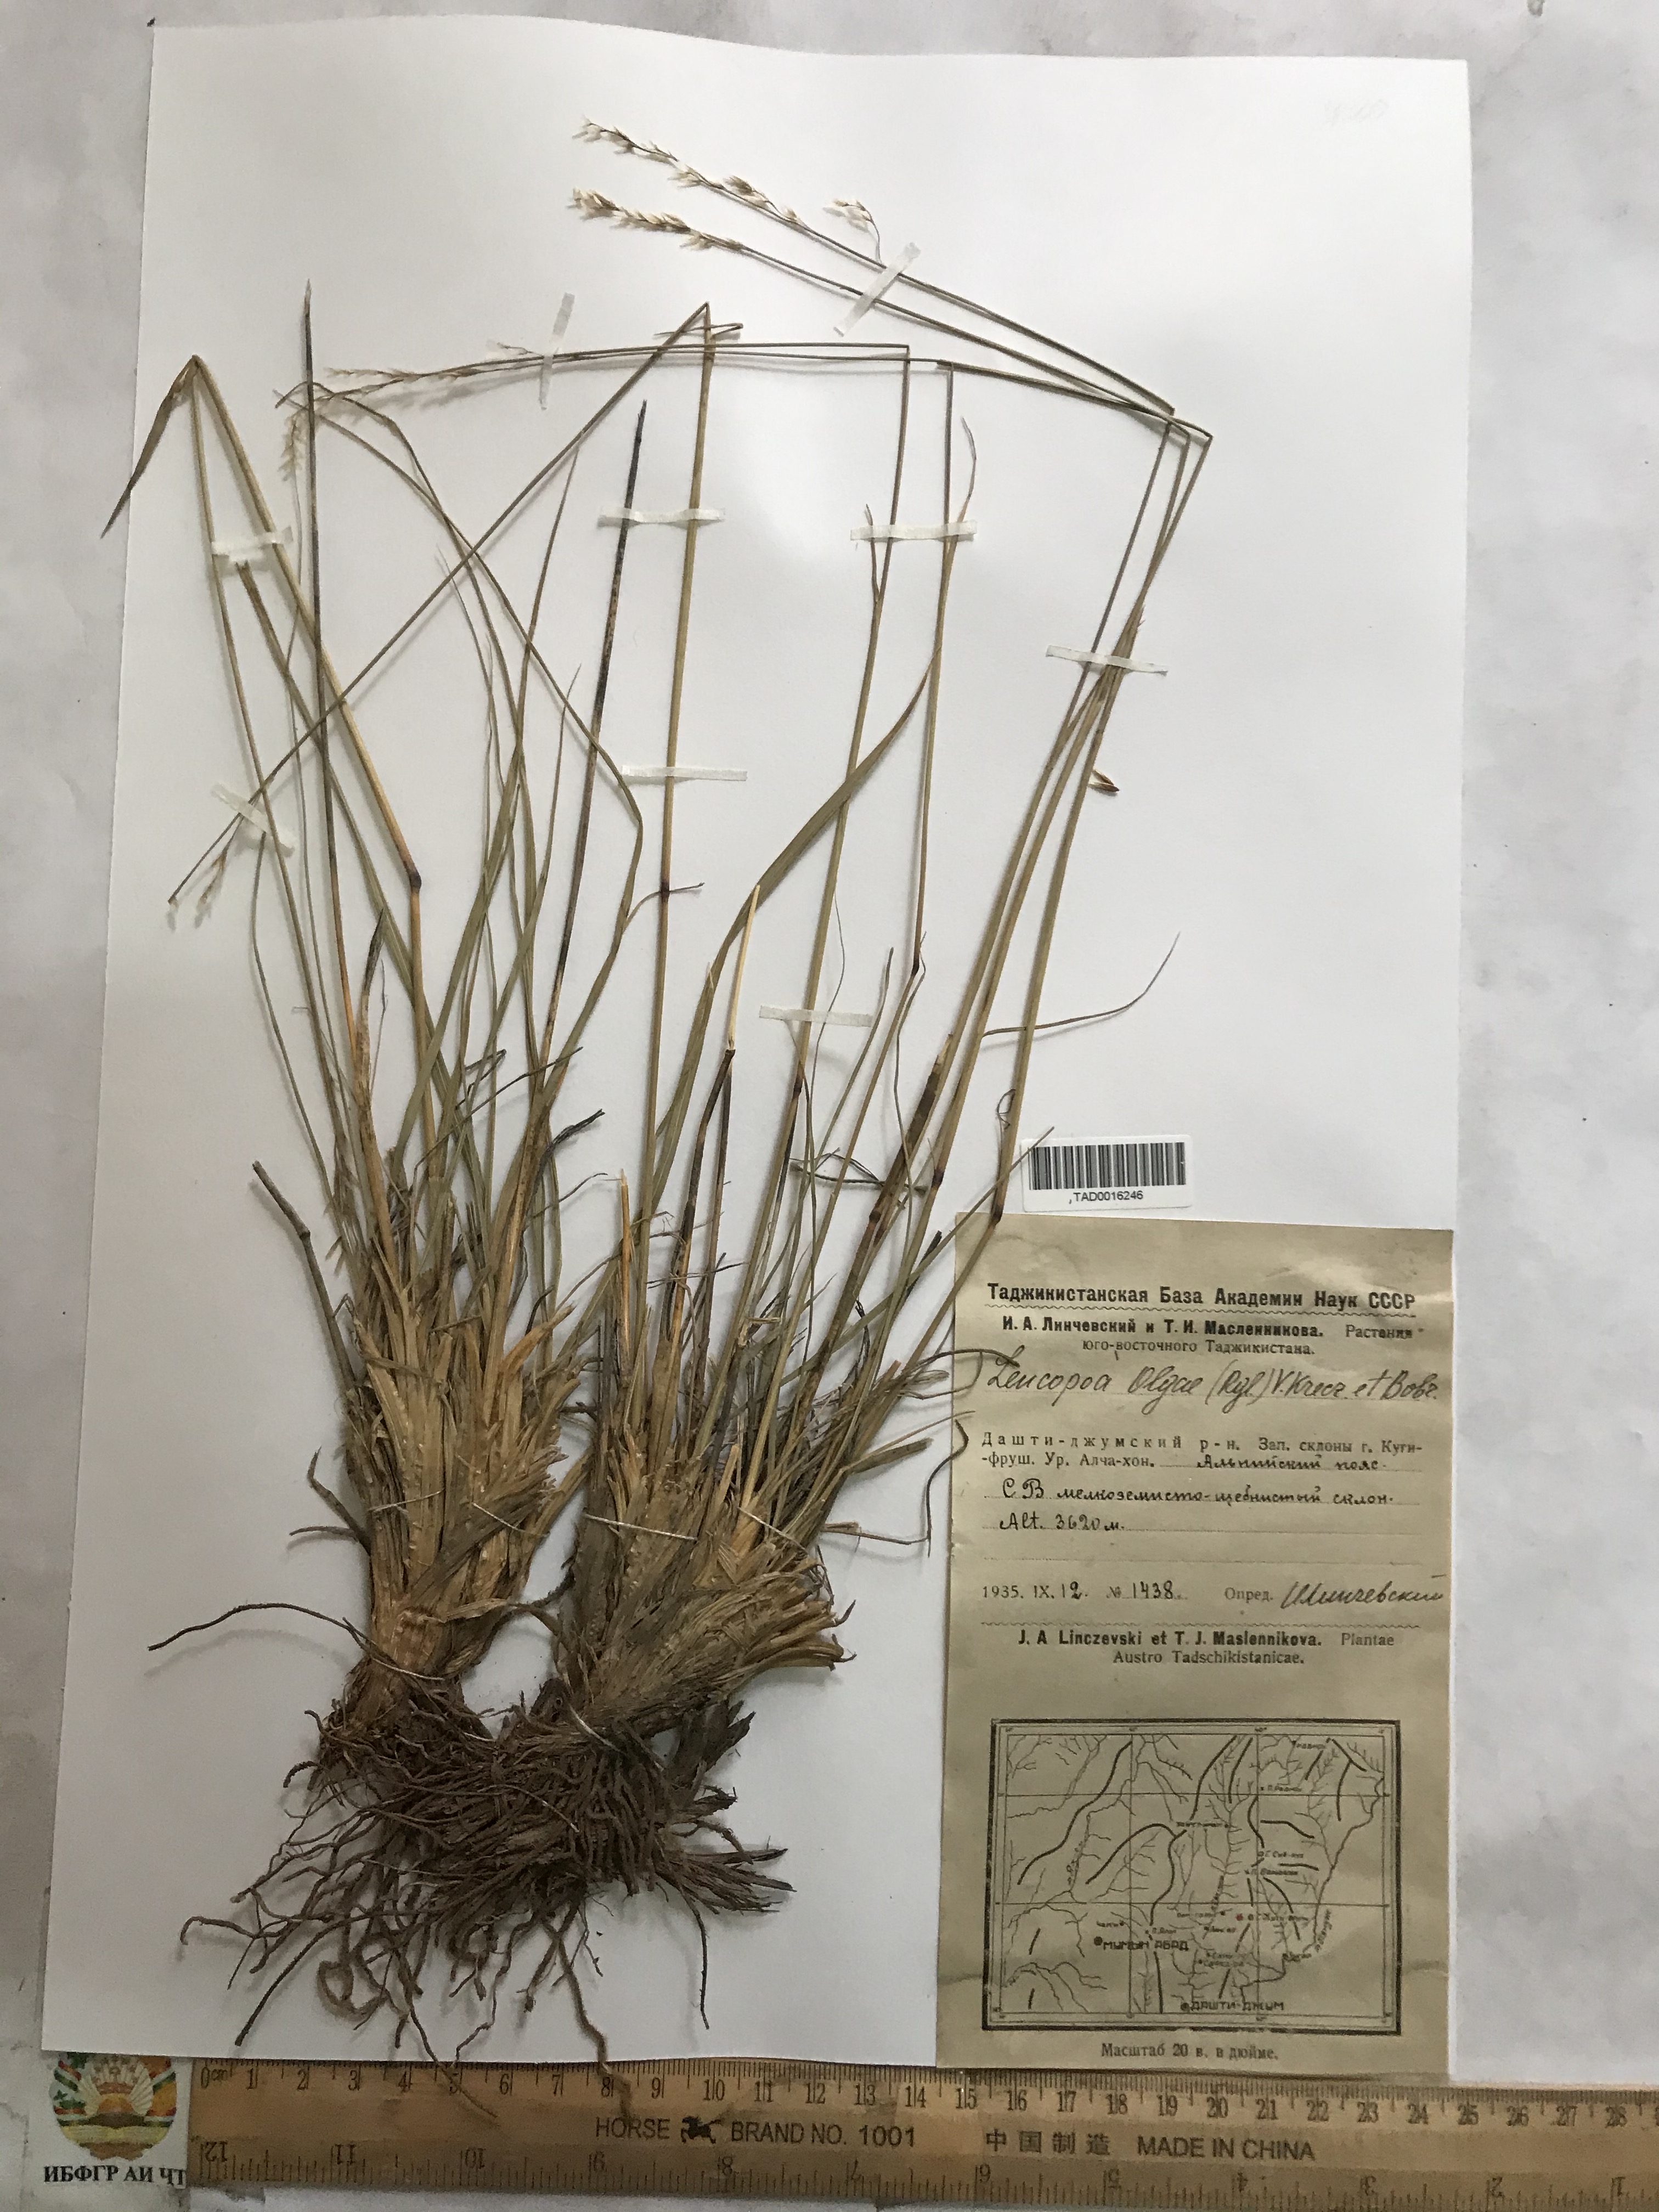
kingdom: Plantae
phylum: Tracheophyta
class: Liliopsida
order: Poales
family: Poaceae
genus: Festuca
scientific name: Festuca
